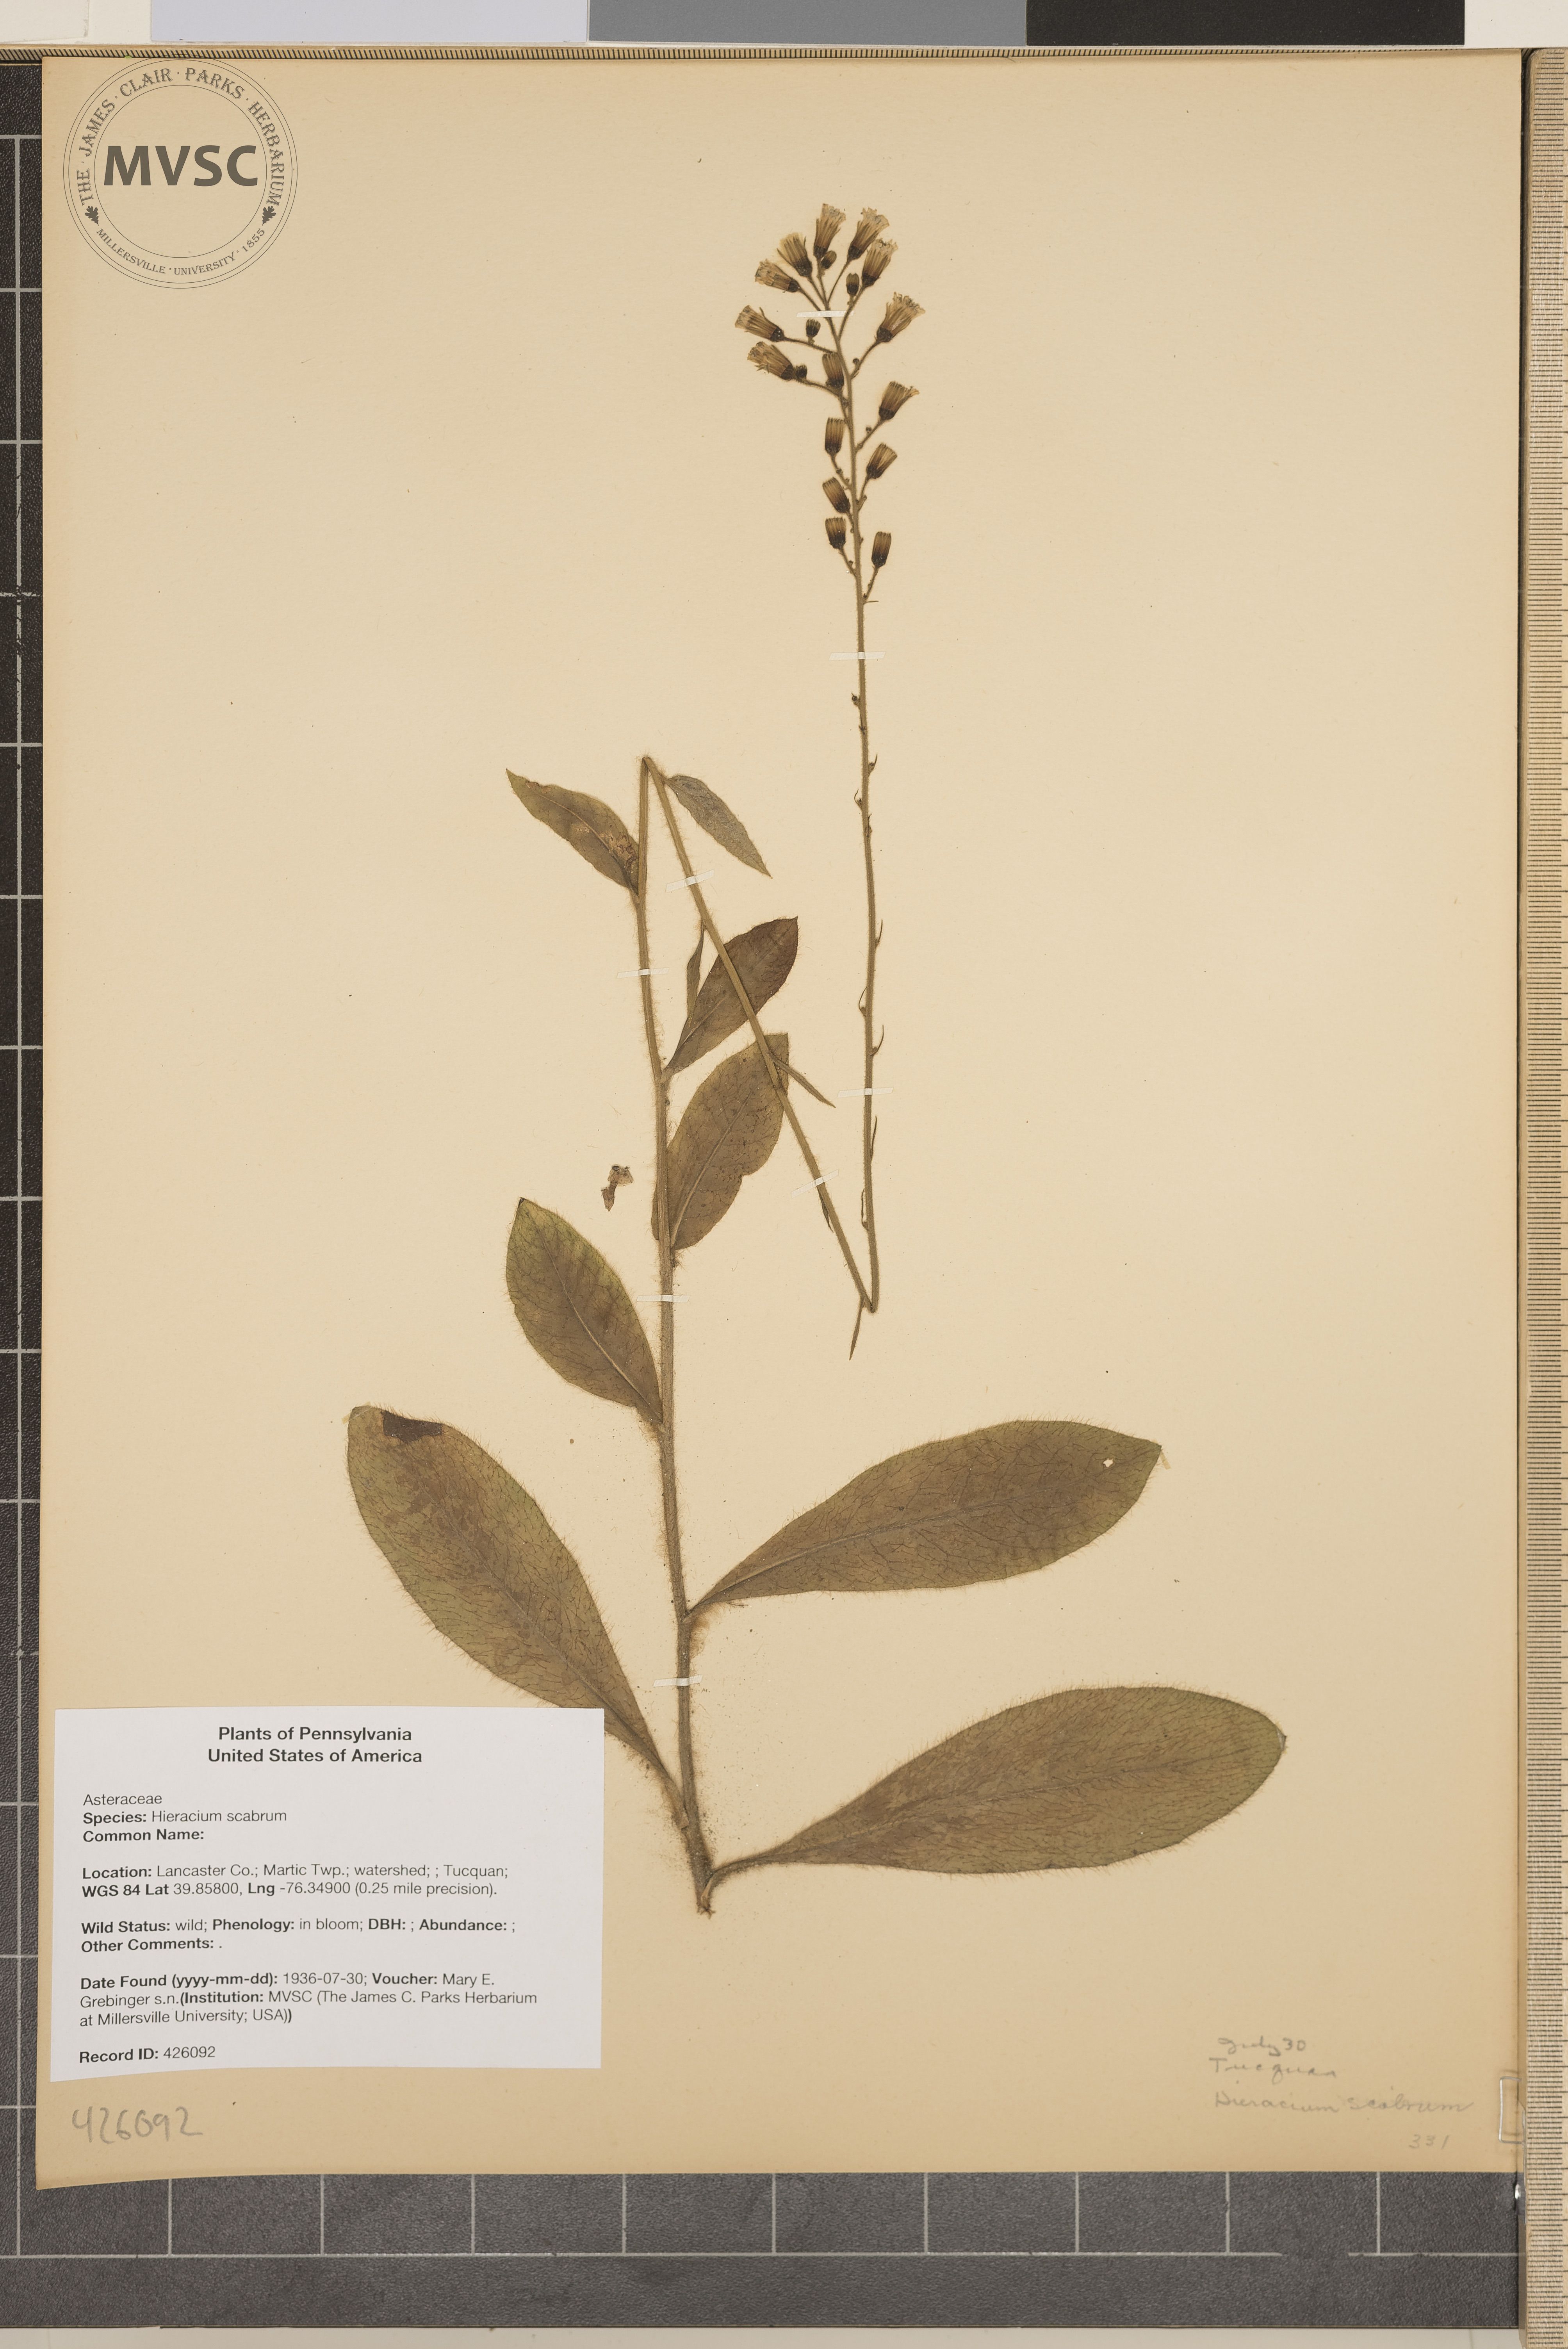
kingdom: Plantae
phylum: Tracheophyta
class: Magnoliopsida
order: Asterales
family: Asteraceae
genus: Hieracium
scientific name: Hieracium scabrum
